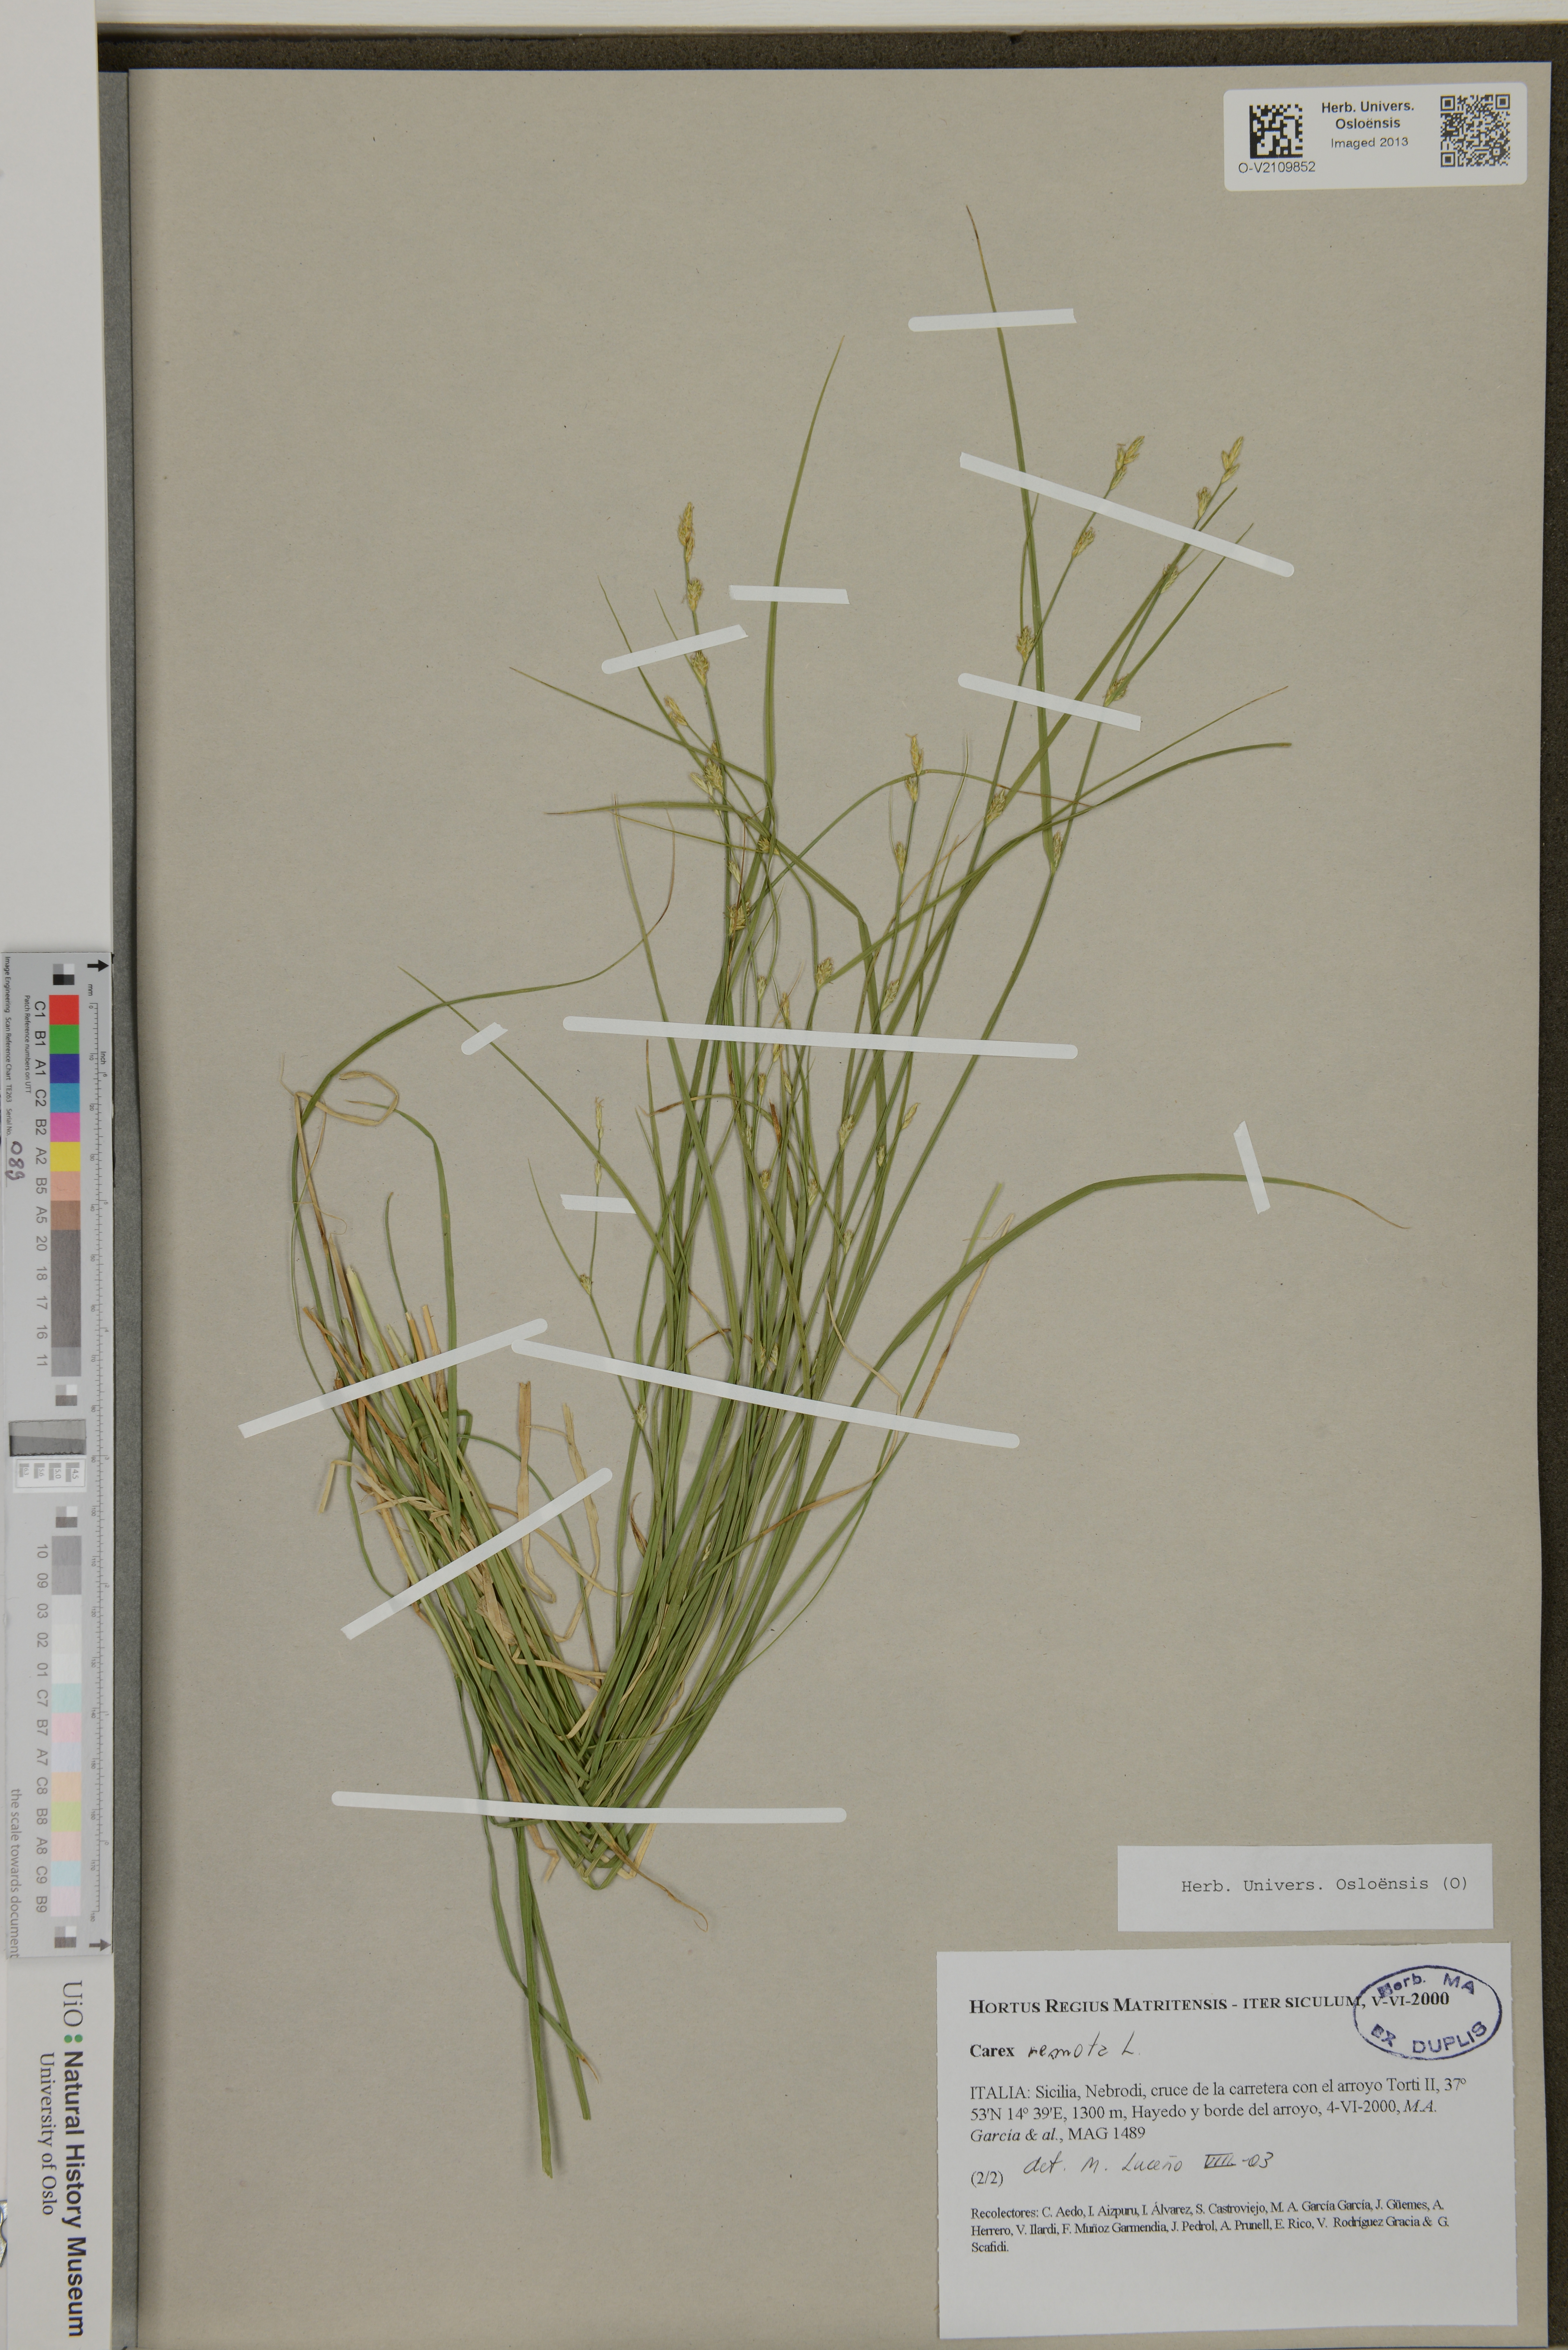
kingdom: Plantae
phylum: Tracheophyta
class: Liliopsida
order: Poales
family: Cyperaceae
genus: Carex
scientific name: Carex remota
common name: Remote sedge
